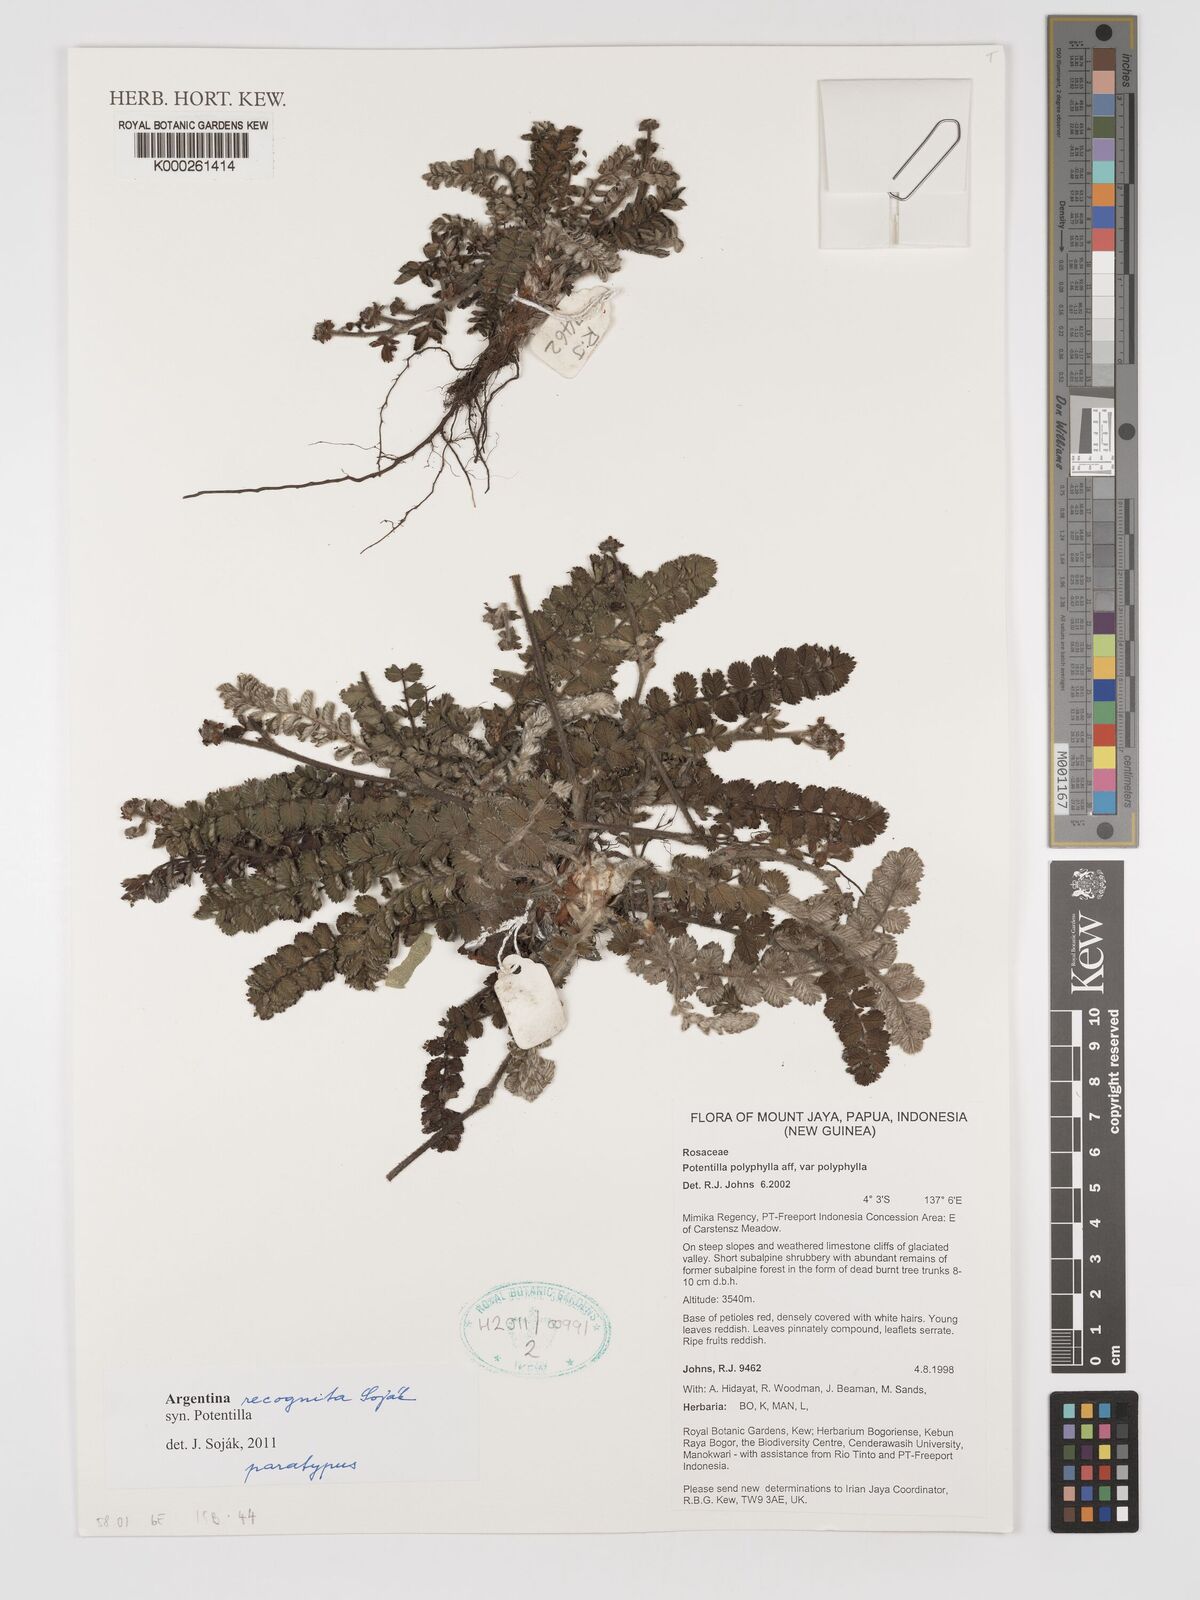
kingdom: Plantae
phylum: Tracheophyta
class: Magnoliopsida
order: Rosales
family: Rosaceae
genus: Potentilla
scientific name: Potentilla
